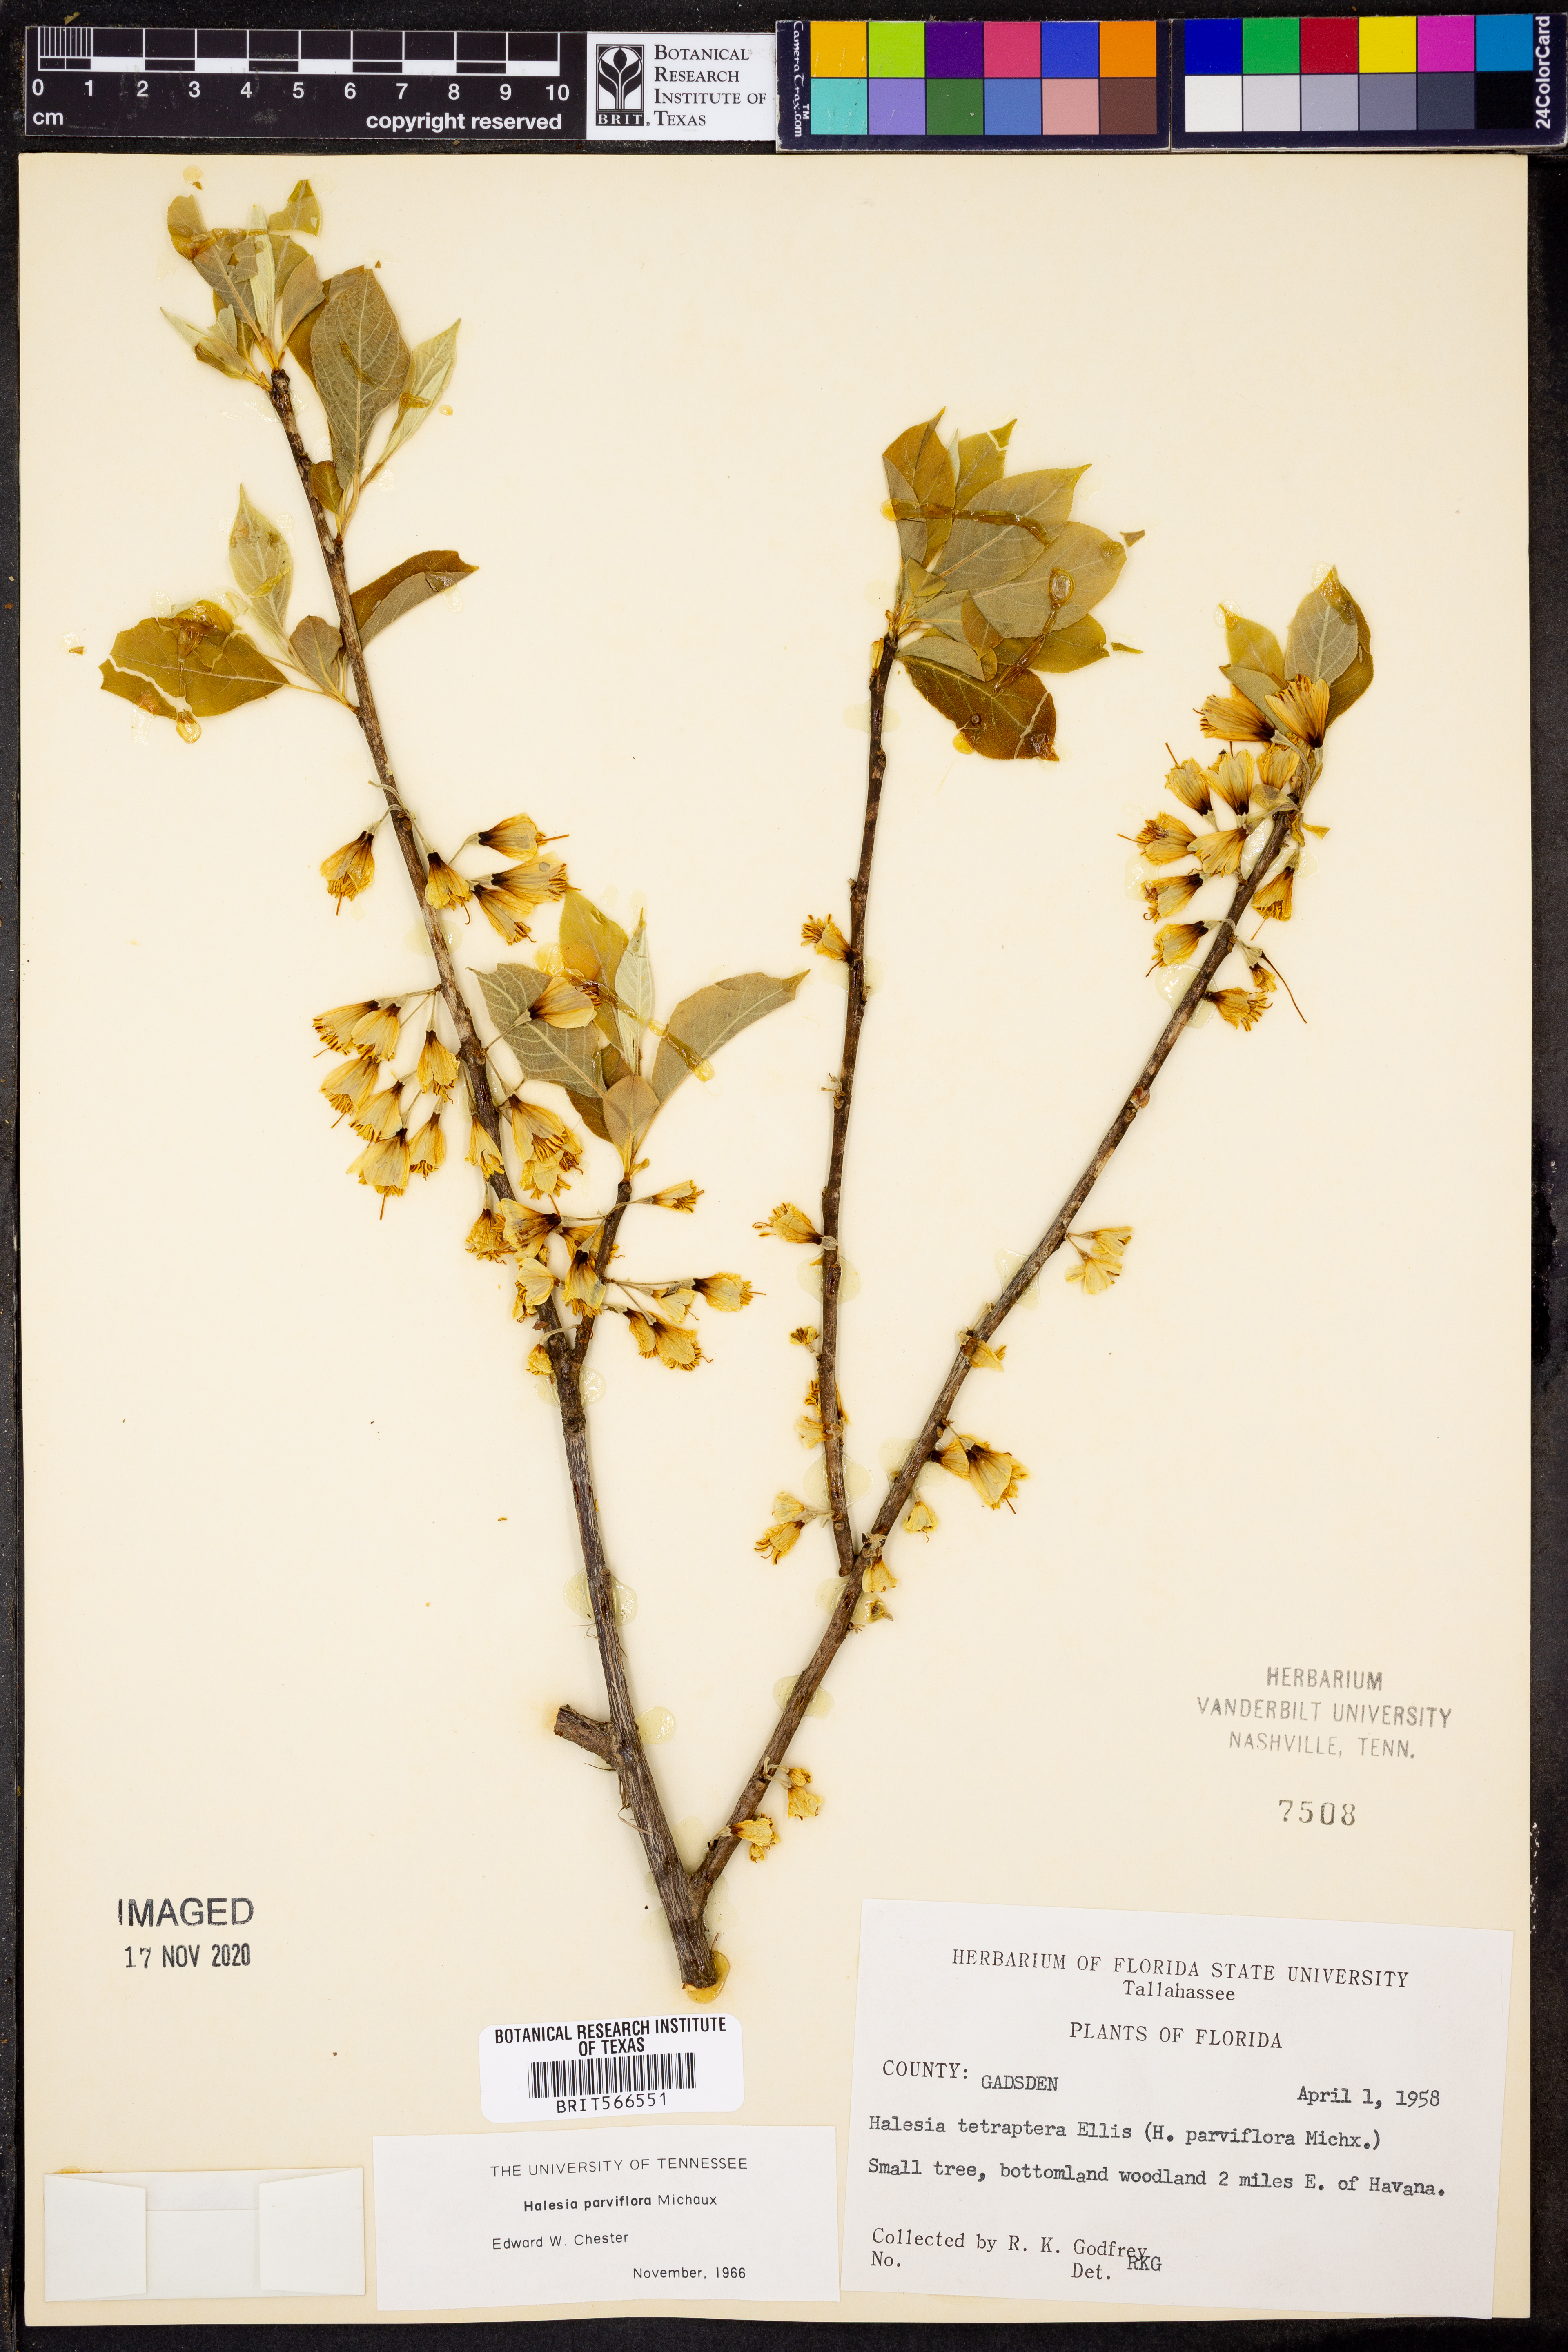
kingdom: Plantae
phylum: Tracheophyta
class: Magnoliopsida
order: Ericales
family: Styracaceae
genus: Halesia
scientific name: Halesia carolina
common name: Carolina silverbell
